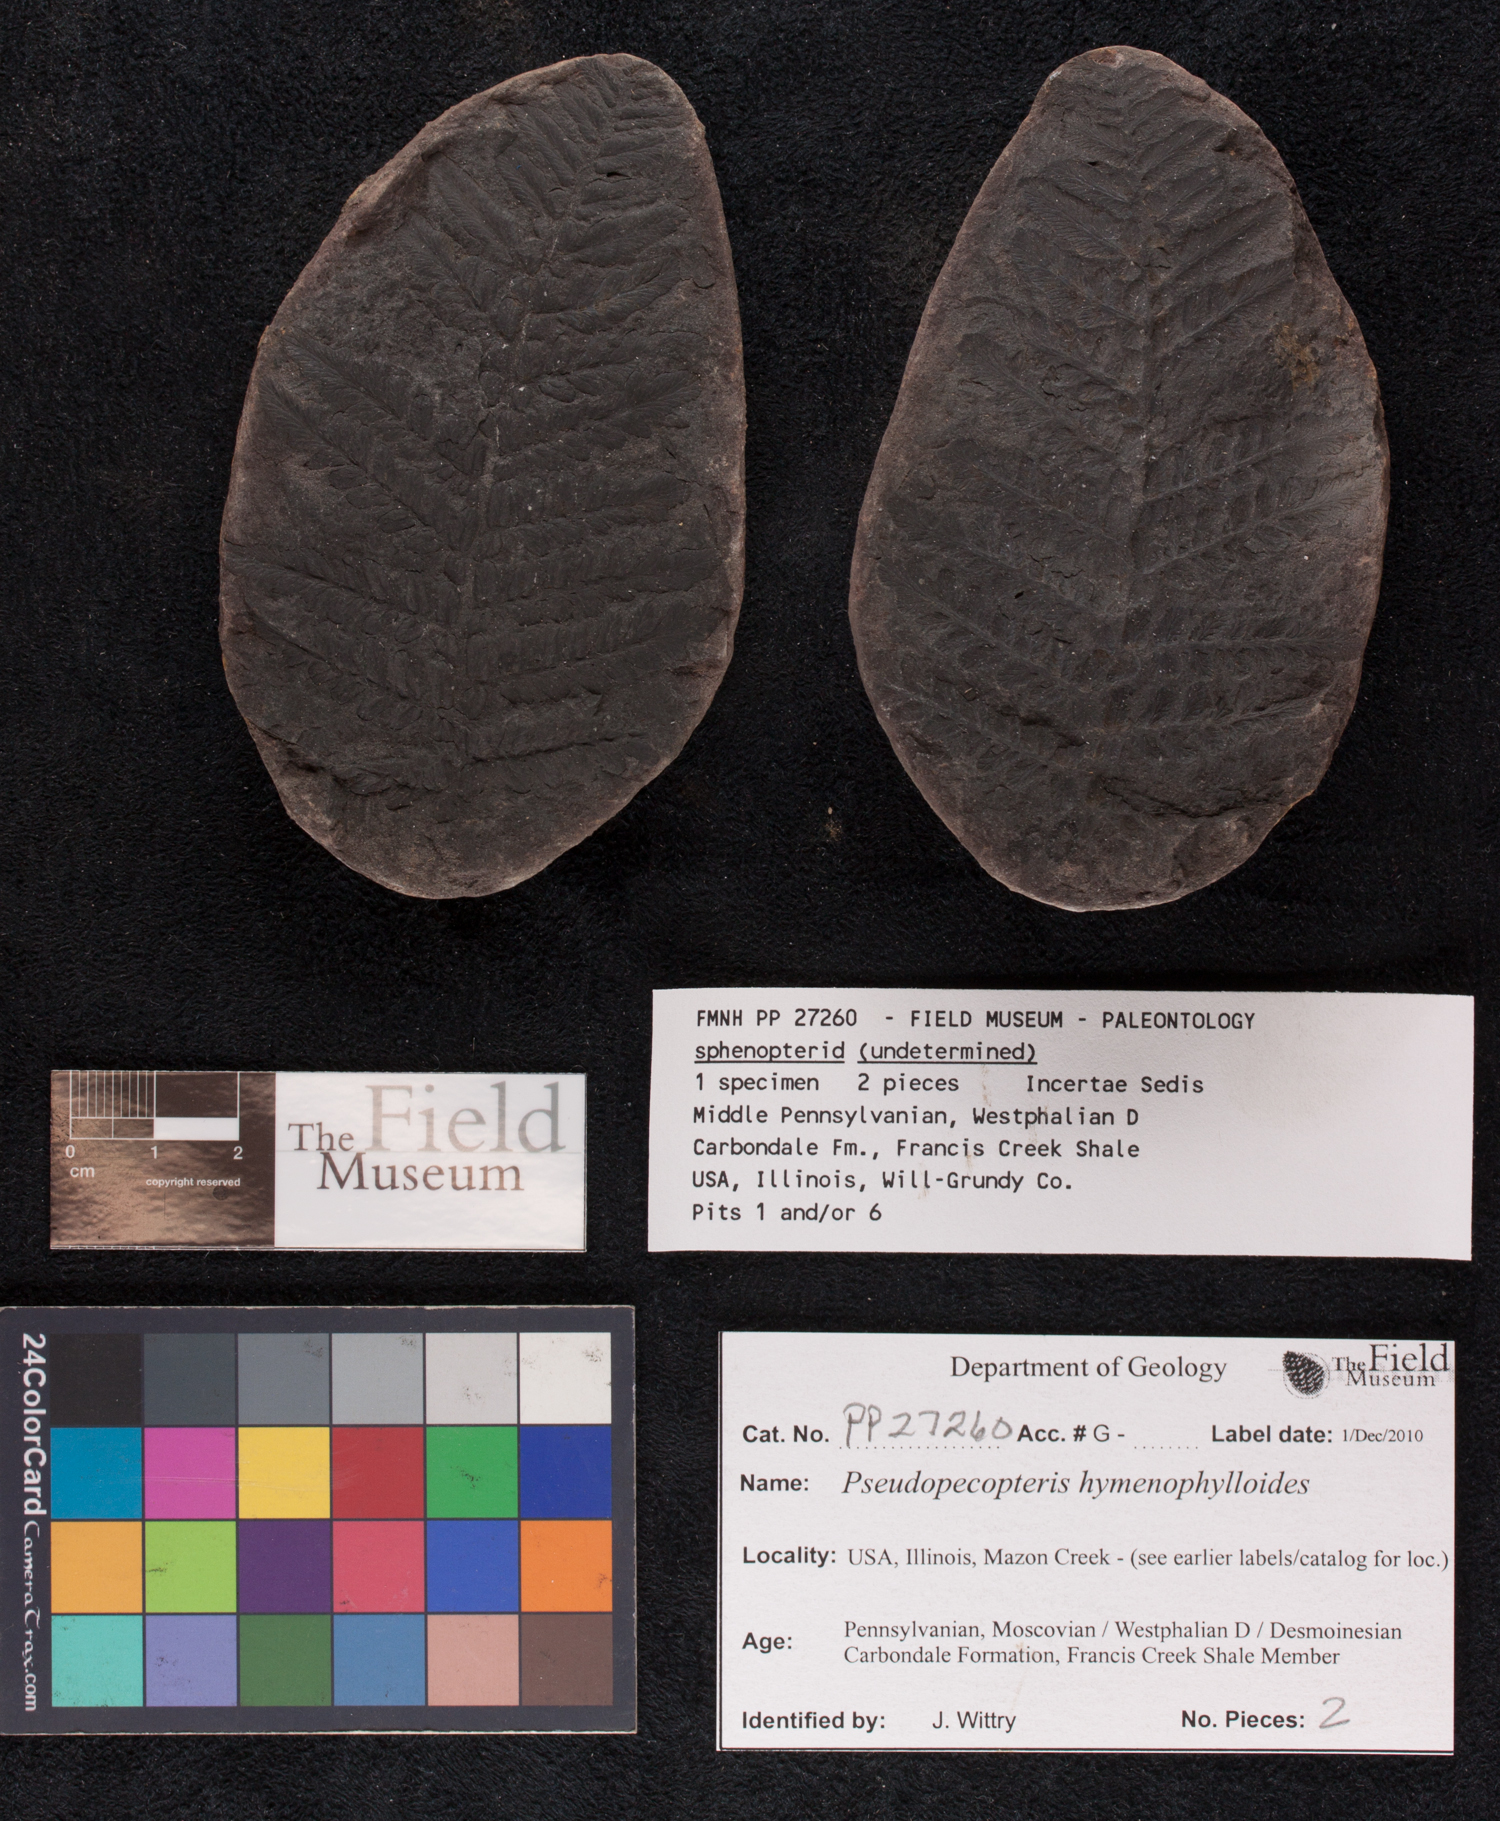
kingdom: Plantae
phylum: Tracheophyta
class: Polypodiopsida
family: Stauropteridaceae
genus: Crossotheca
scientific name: Crossotheca
